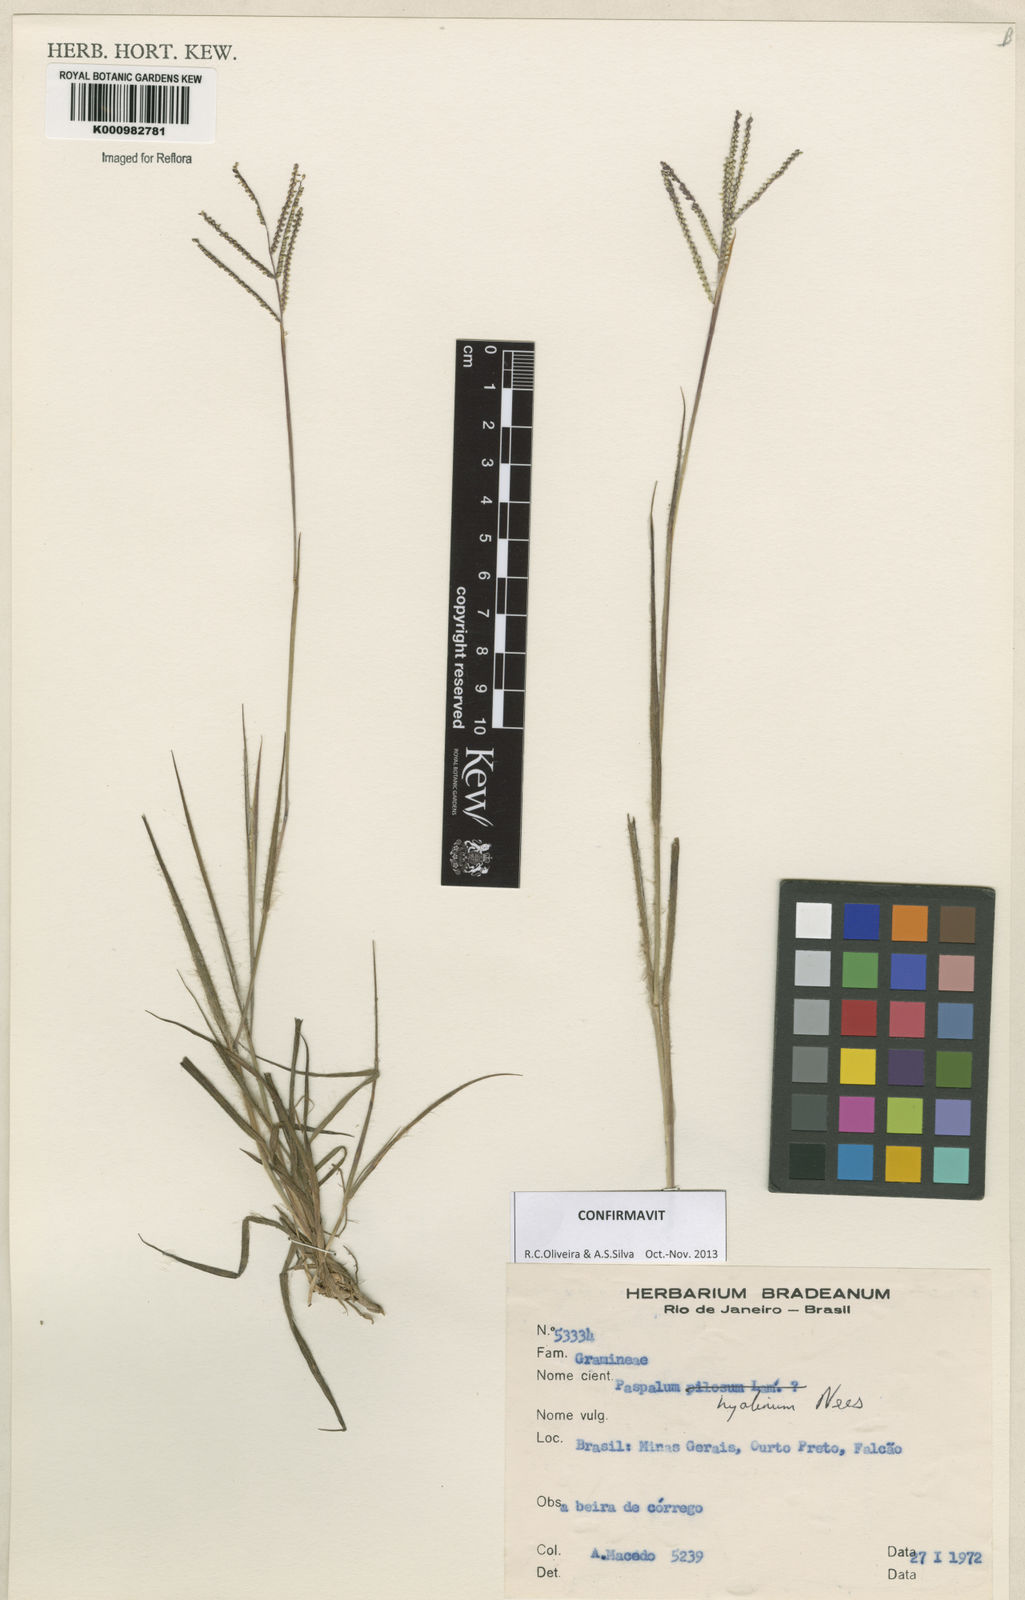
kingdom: Plantae
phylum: Tracheophyta
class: Liliopsida
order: Poales
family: Poaceae
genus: Paspalum
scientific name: Paspalum hyalinum
